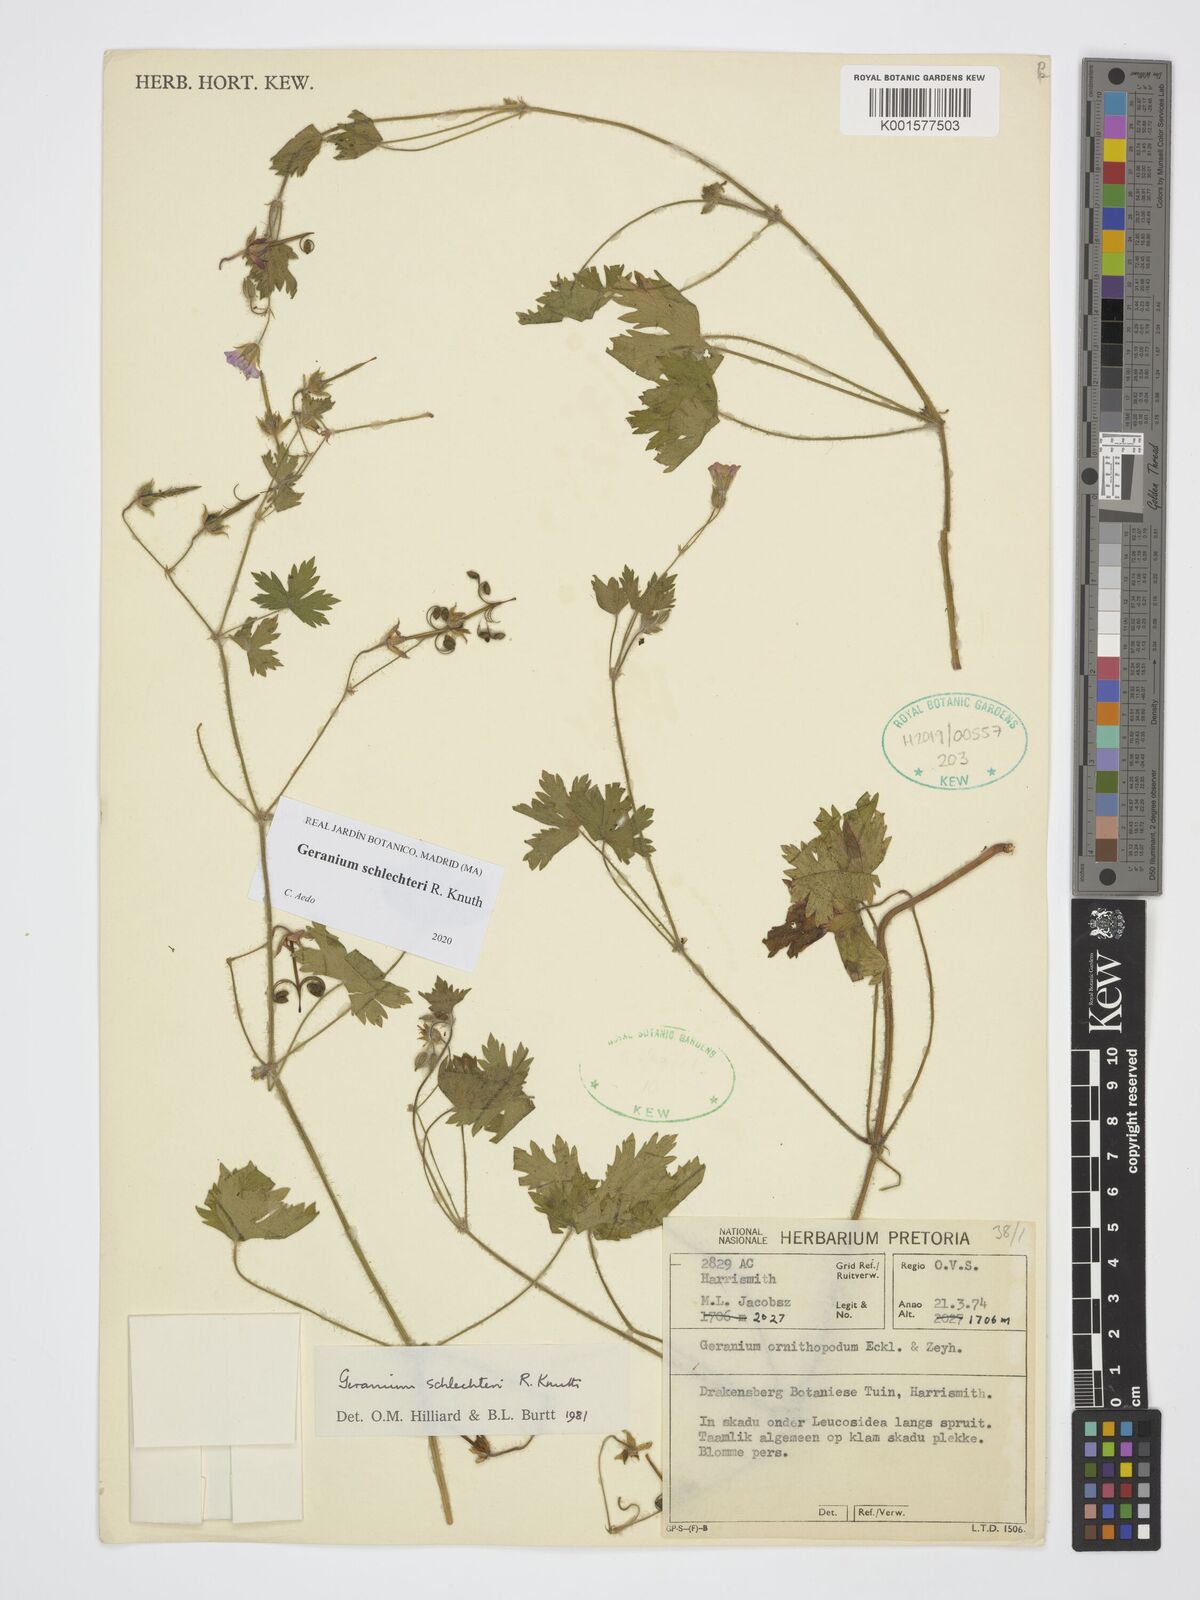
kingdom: Plantae
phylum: Tracheophyta
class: Magnoliopsida
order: Geraniales
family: Geraniaceae
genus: Geranium
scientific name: Geranium schlechteri
